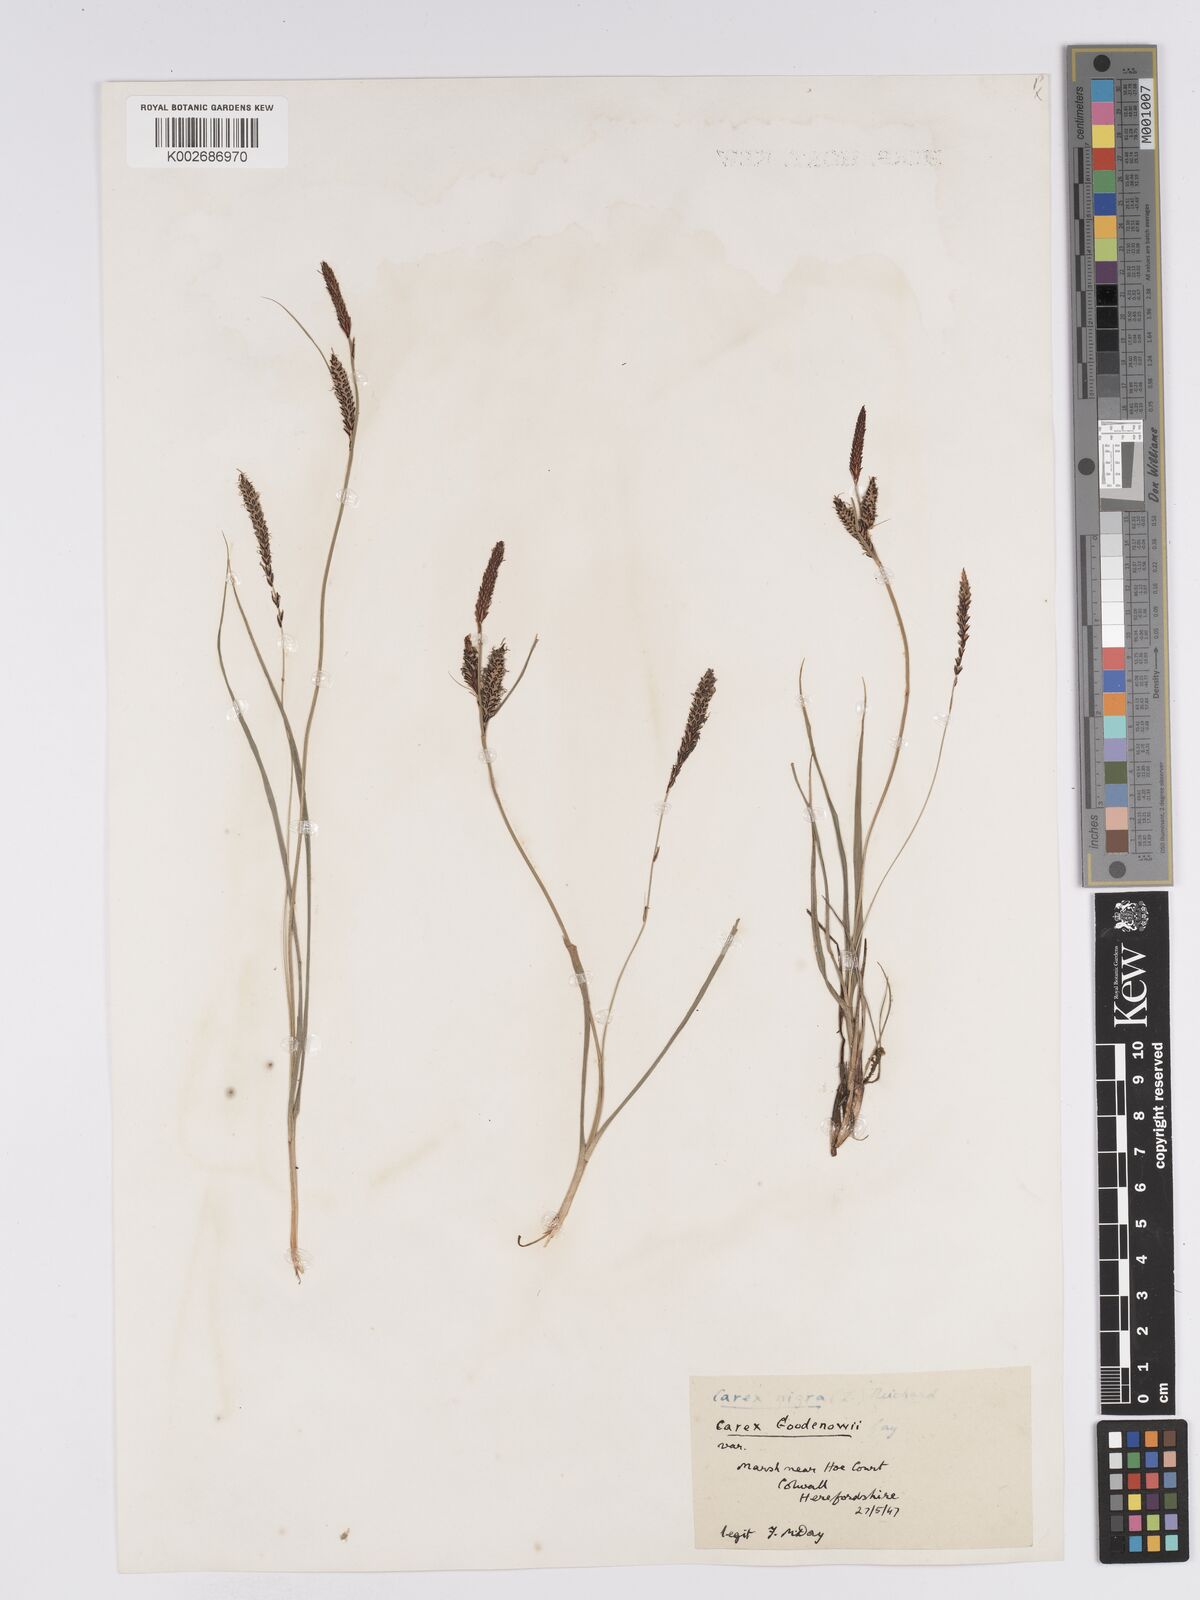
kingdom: Plantae
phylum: Tracheophyta
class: Liliopsida
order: Poales
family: Cyperaceae
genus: Carex
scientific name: Carex nigra
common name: Common sedge
